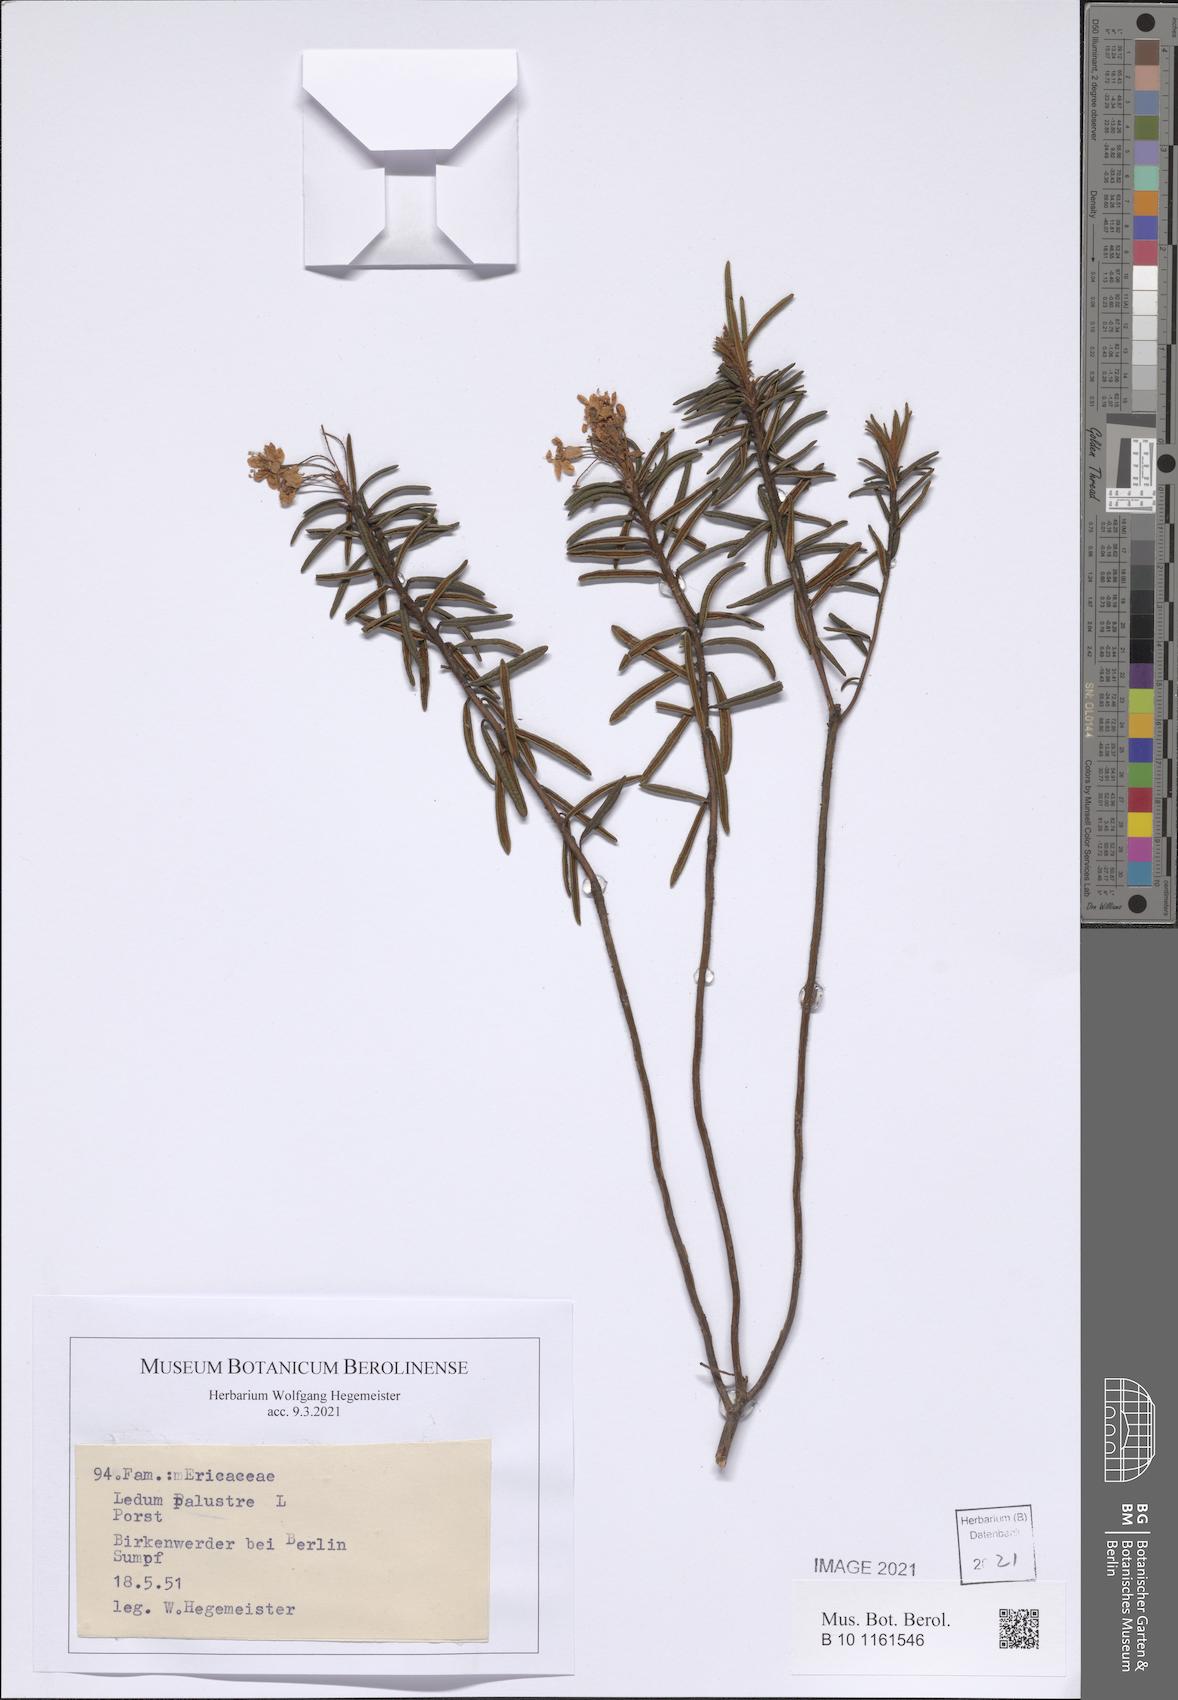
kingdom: Plantae
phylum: Tracheophyta
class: Magnoliopsida
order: Ericales
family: Ericaceae
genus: Rhododendron
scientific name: Rhododendron tomentosum
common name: Marsh labrador tea
